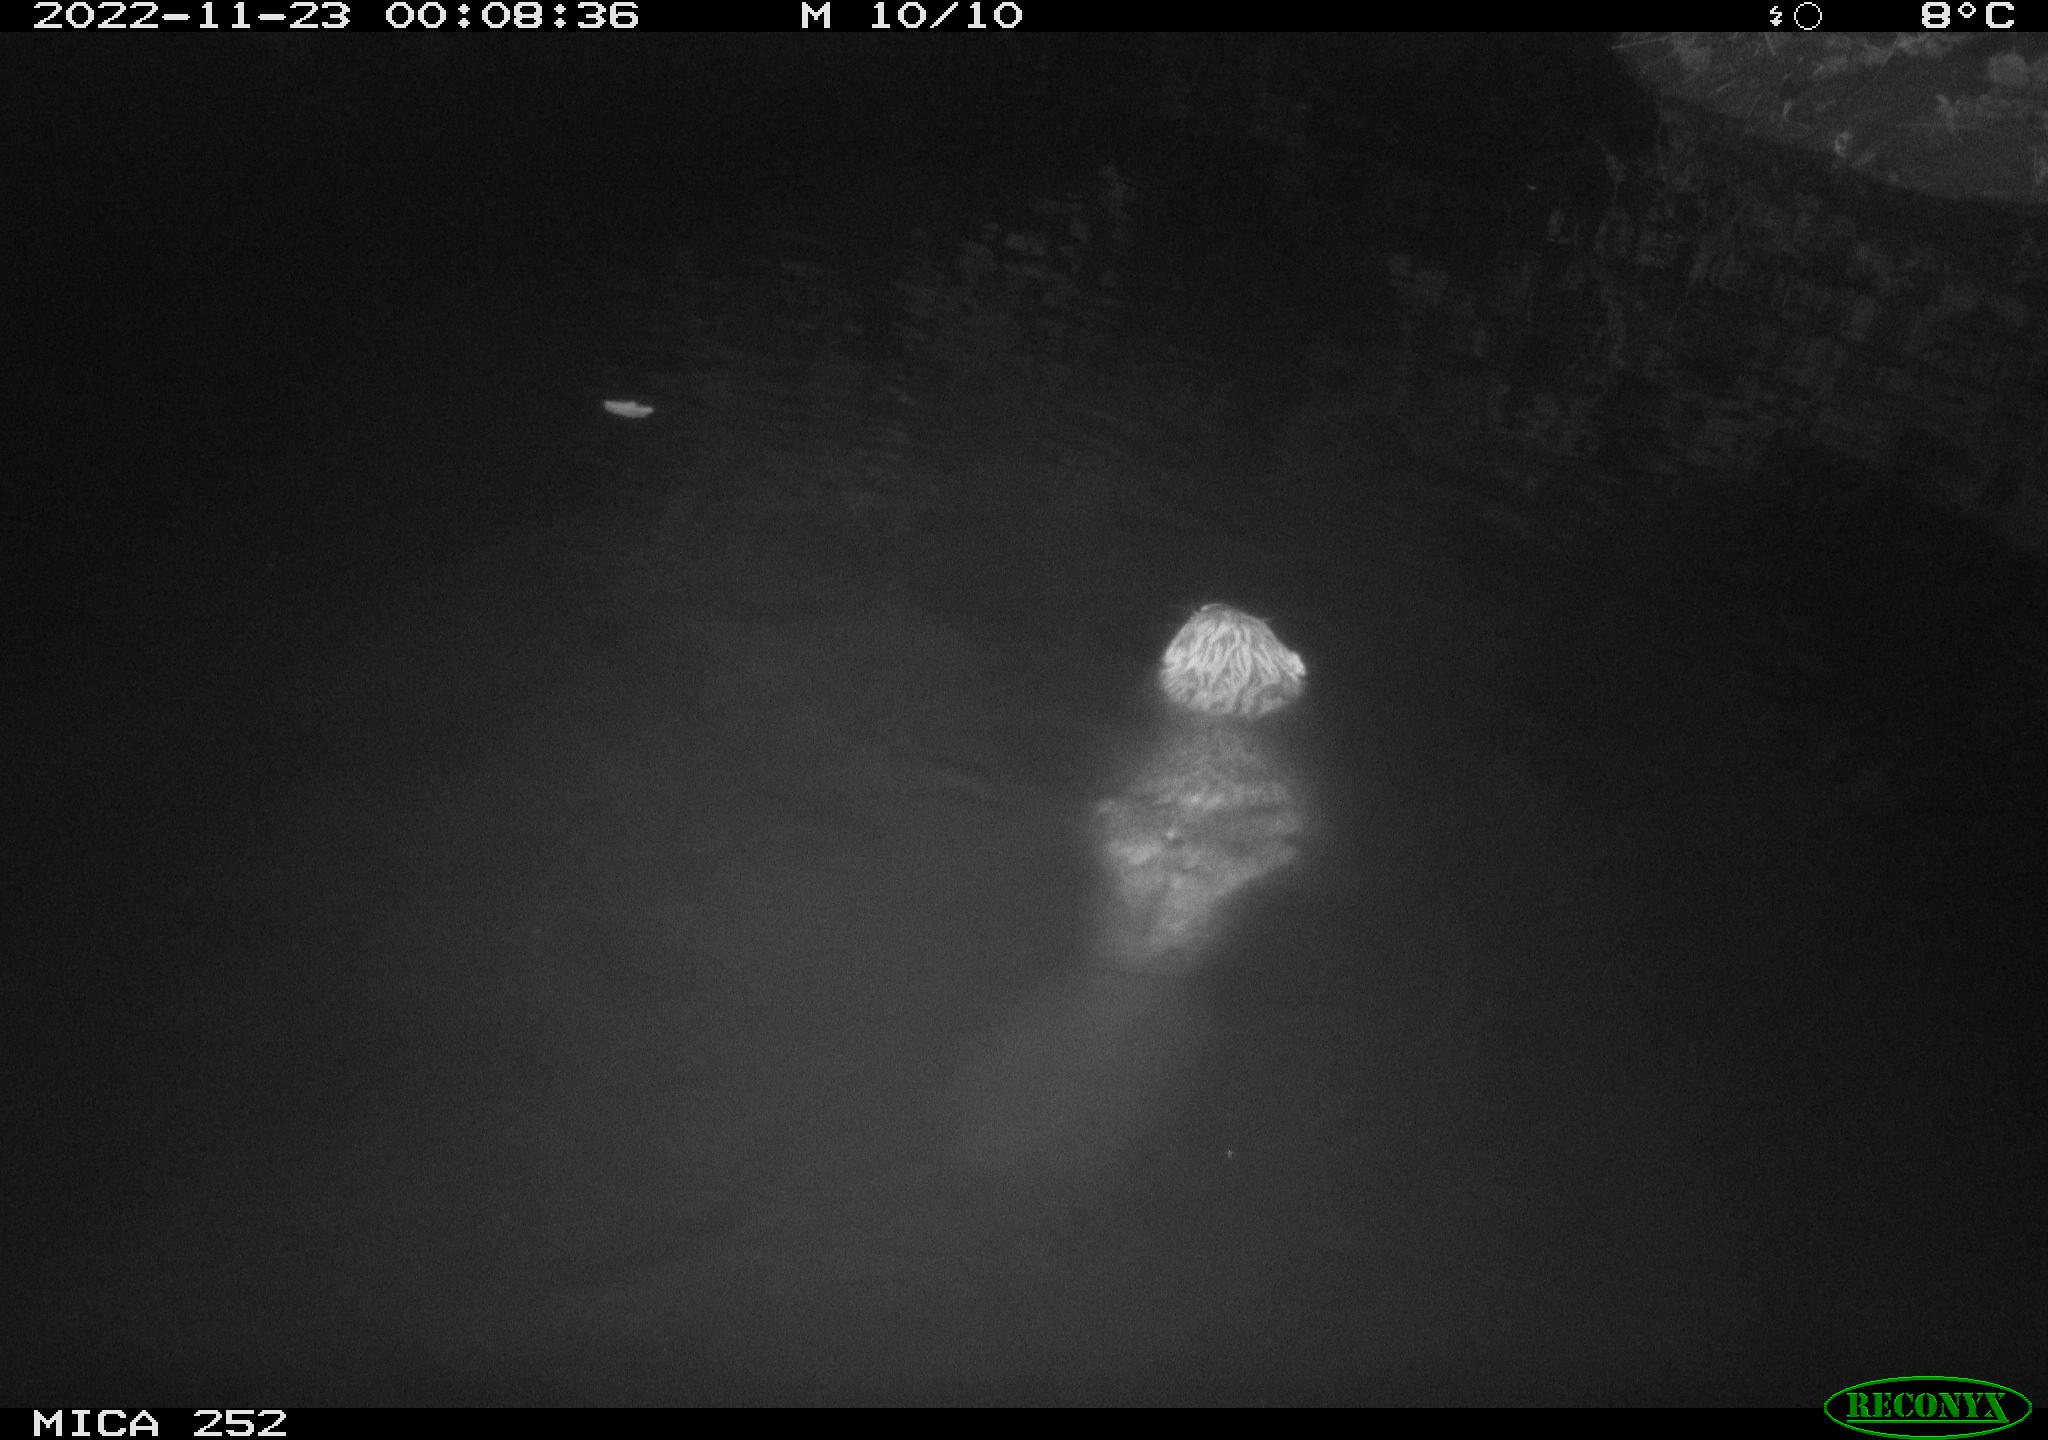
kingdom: Animalia
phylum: Chordata
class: Mammalia
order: Rodentia
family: Castoridae
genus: Castor
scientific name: Castor fiber
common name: Eurasian beaver
